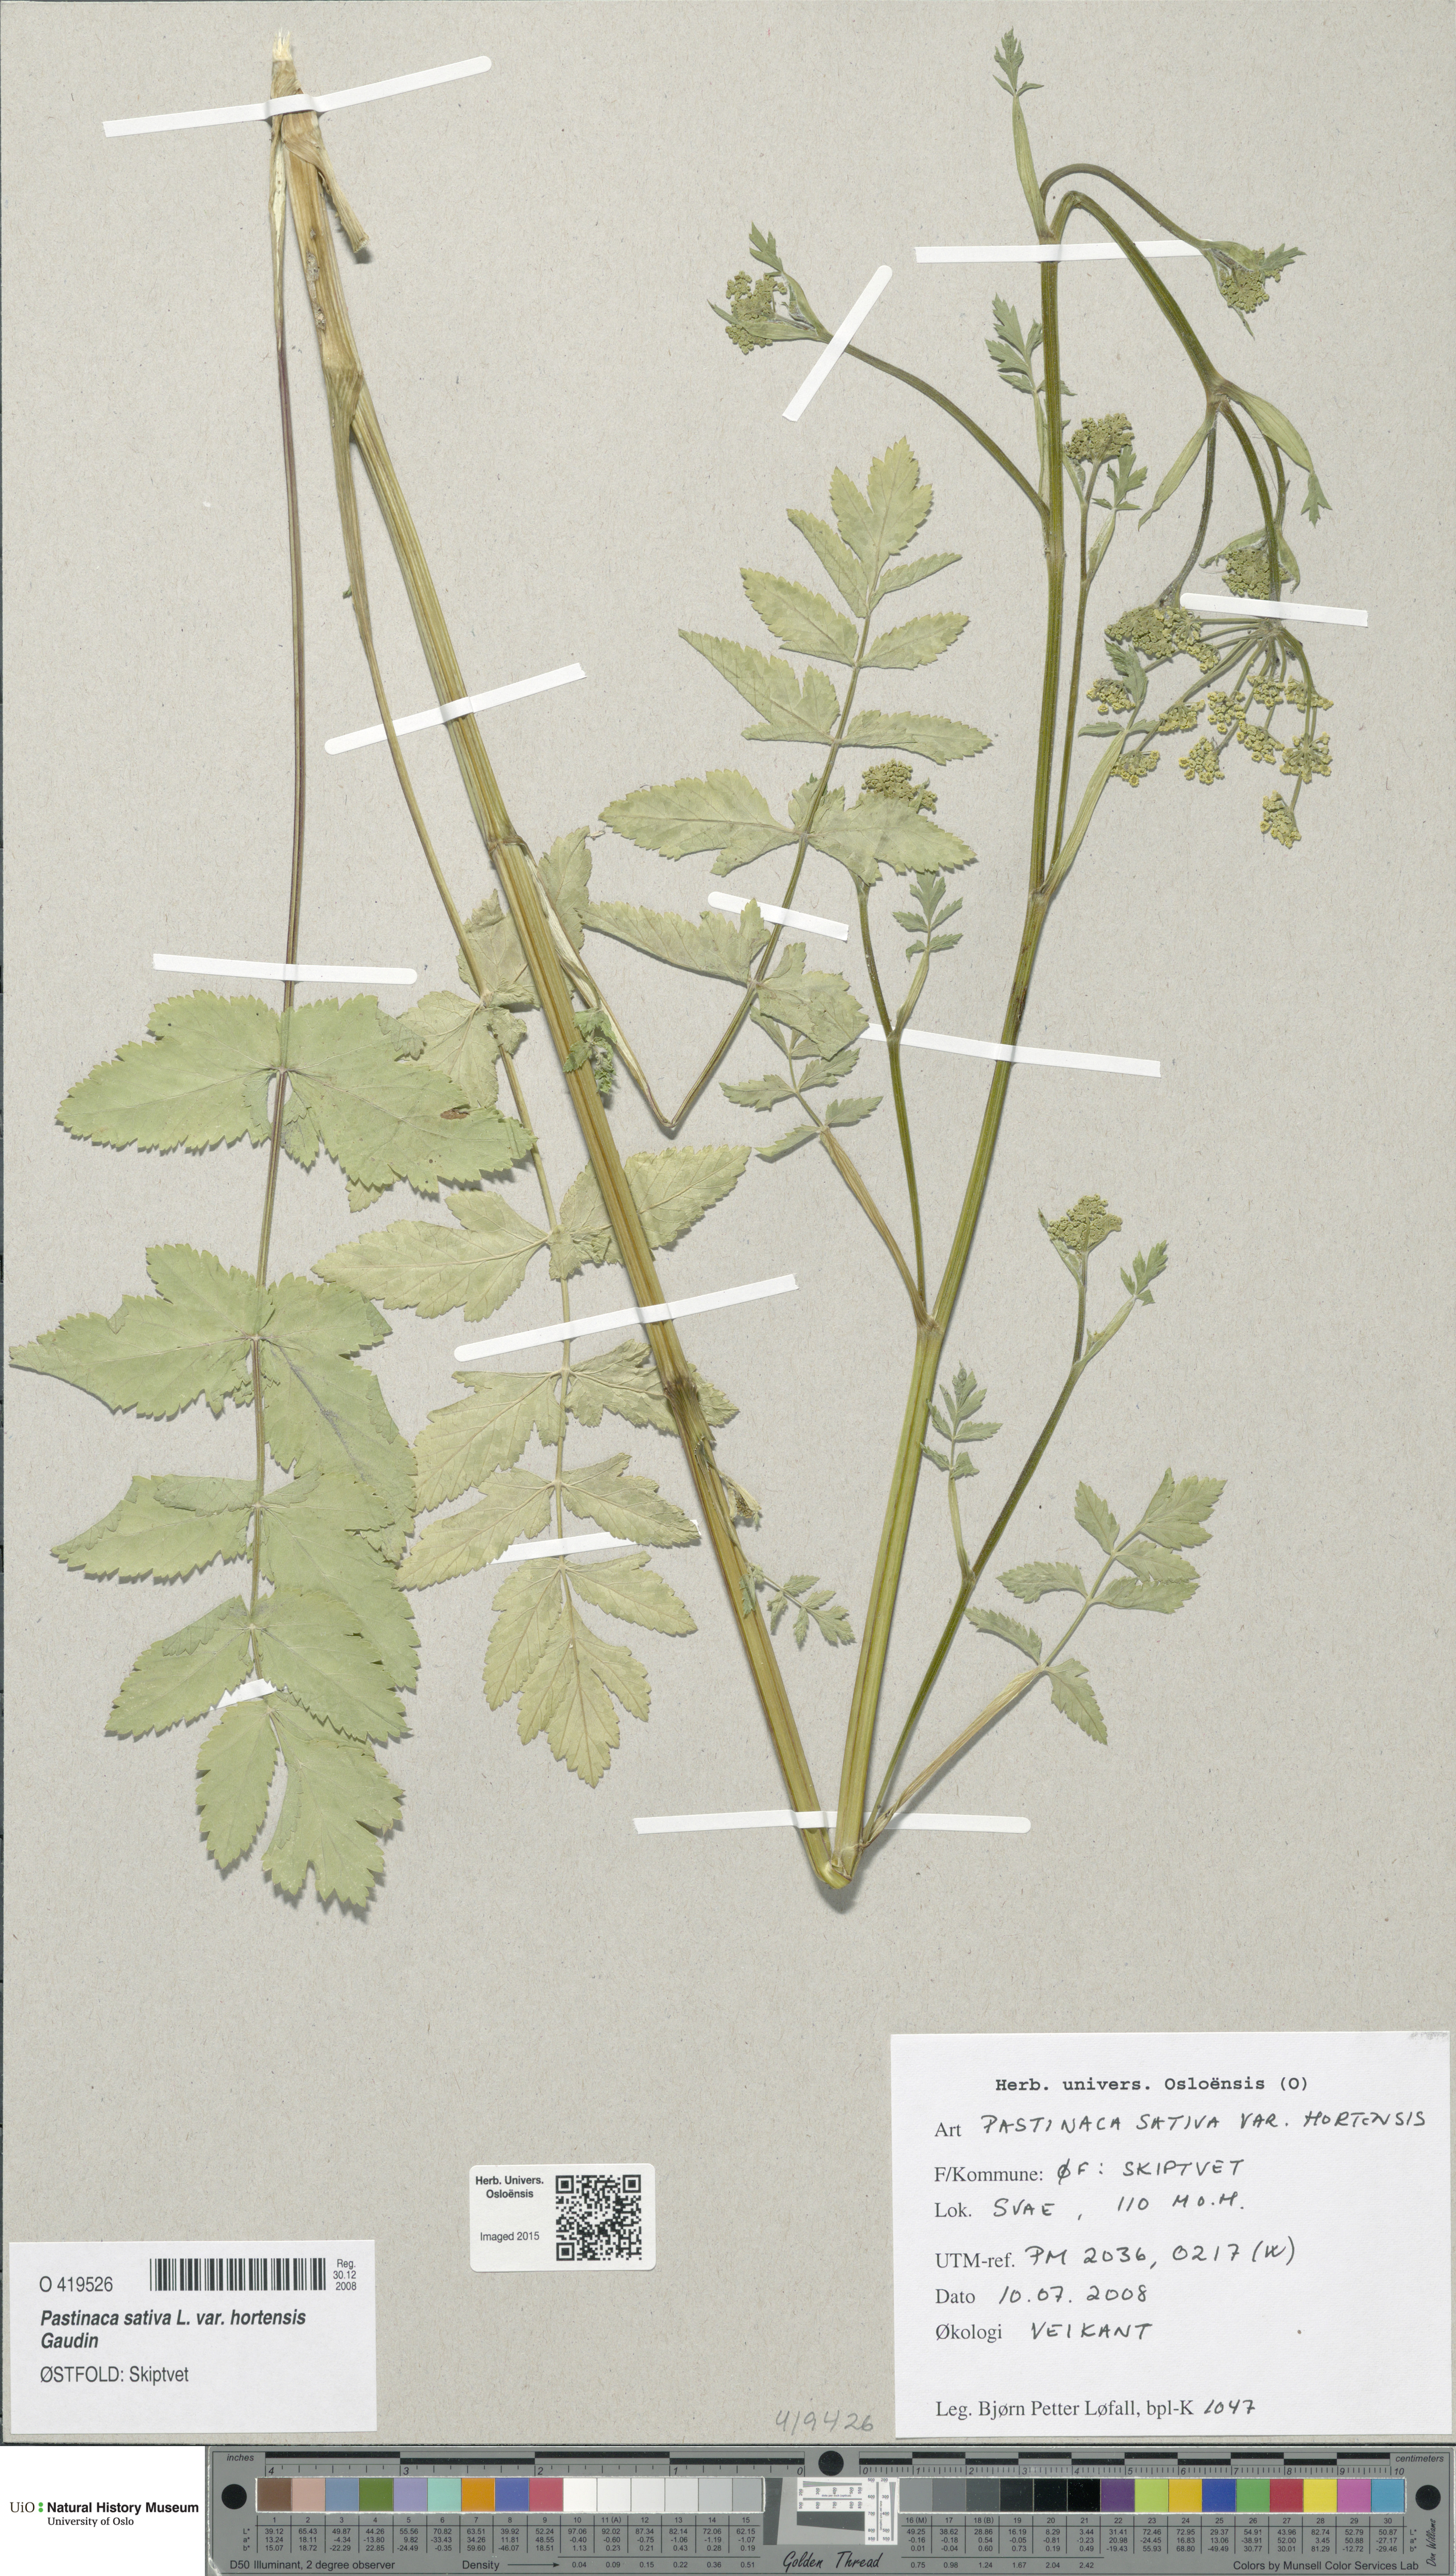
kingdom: Plantae
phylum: Tracheophyta
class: Magnoliopsida
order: Apiales
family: Apiaceae
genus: Pastinaca
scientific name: Pastinaca sativa
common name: Wild parsnip
